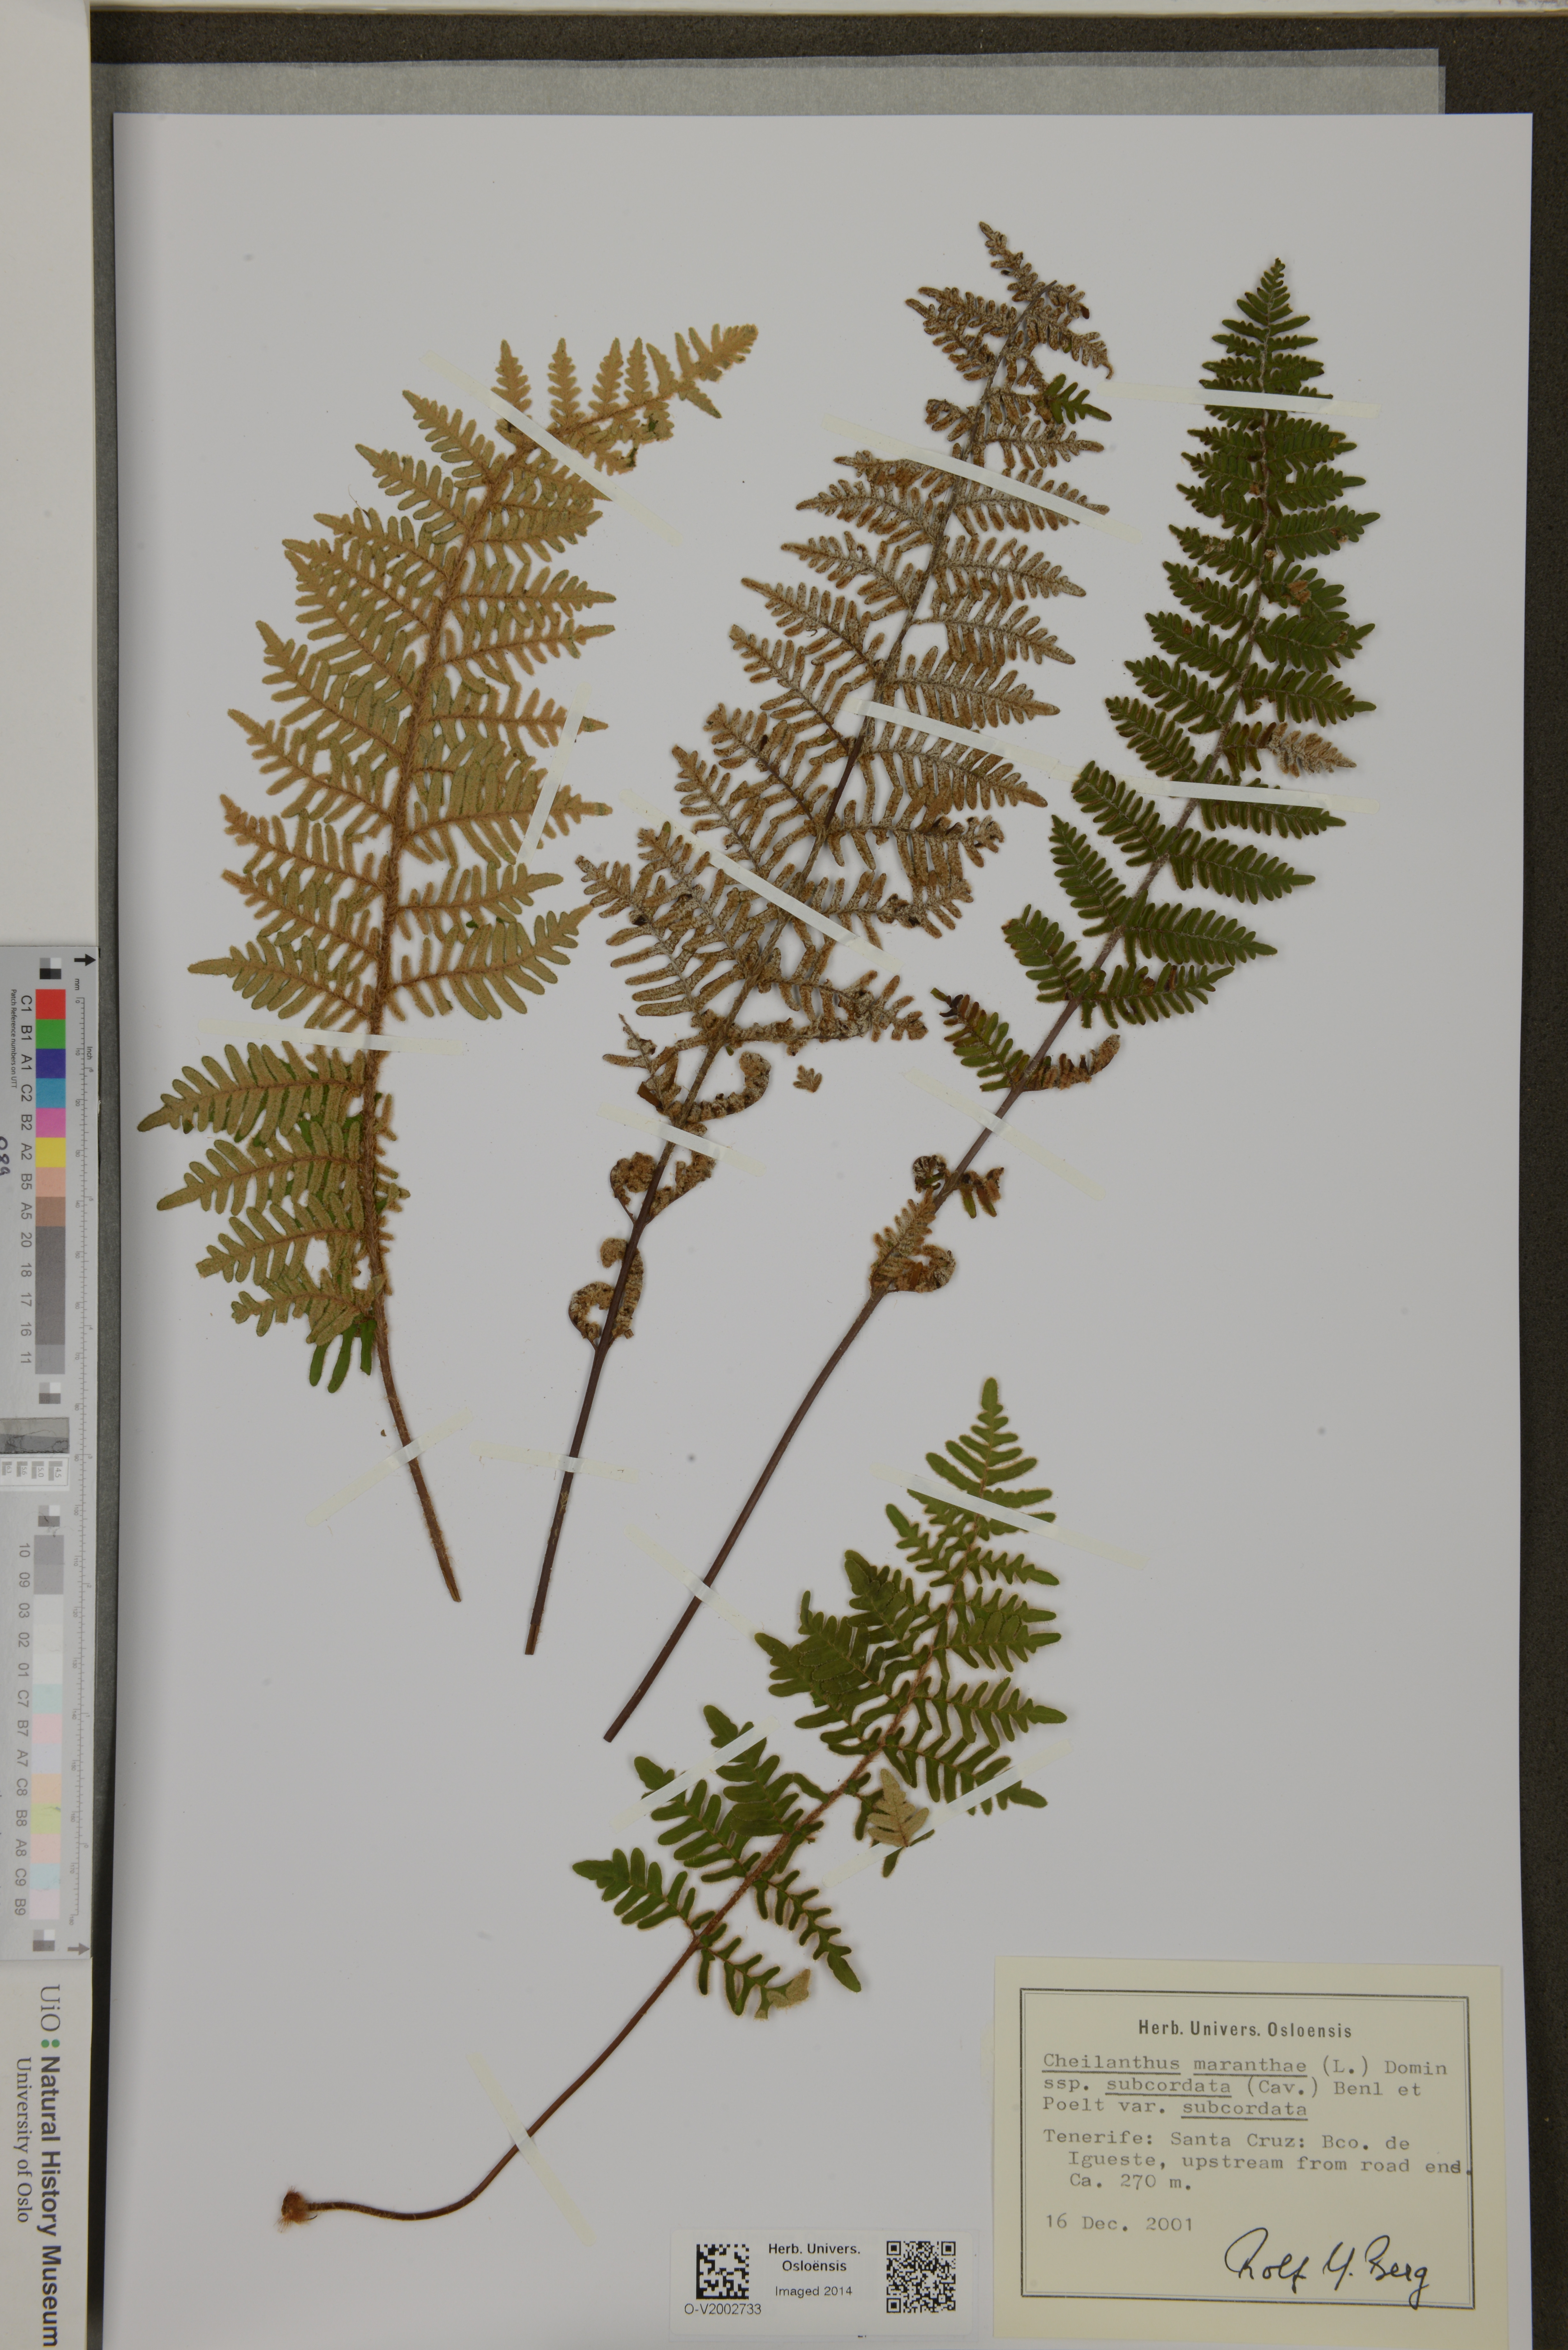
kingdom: Plantae
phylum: Tracheophyta
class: Polypodiopsida
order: Polypodiales
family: Pteridaceae
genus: Paragymnopteris
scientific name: Paragymnopteris marantae
